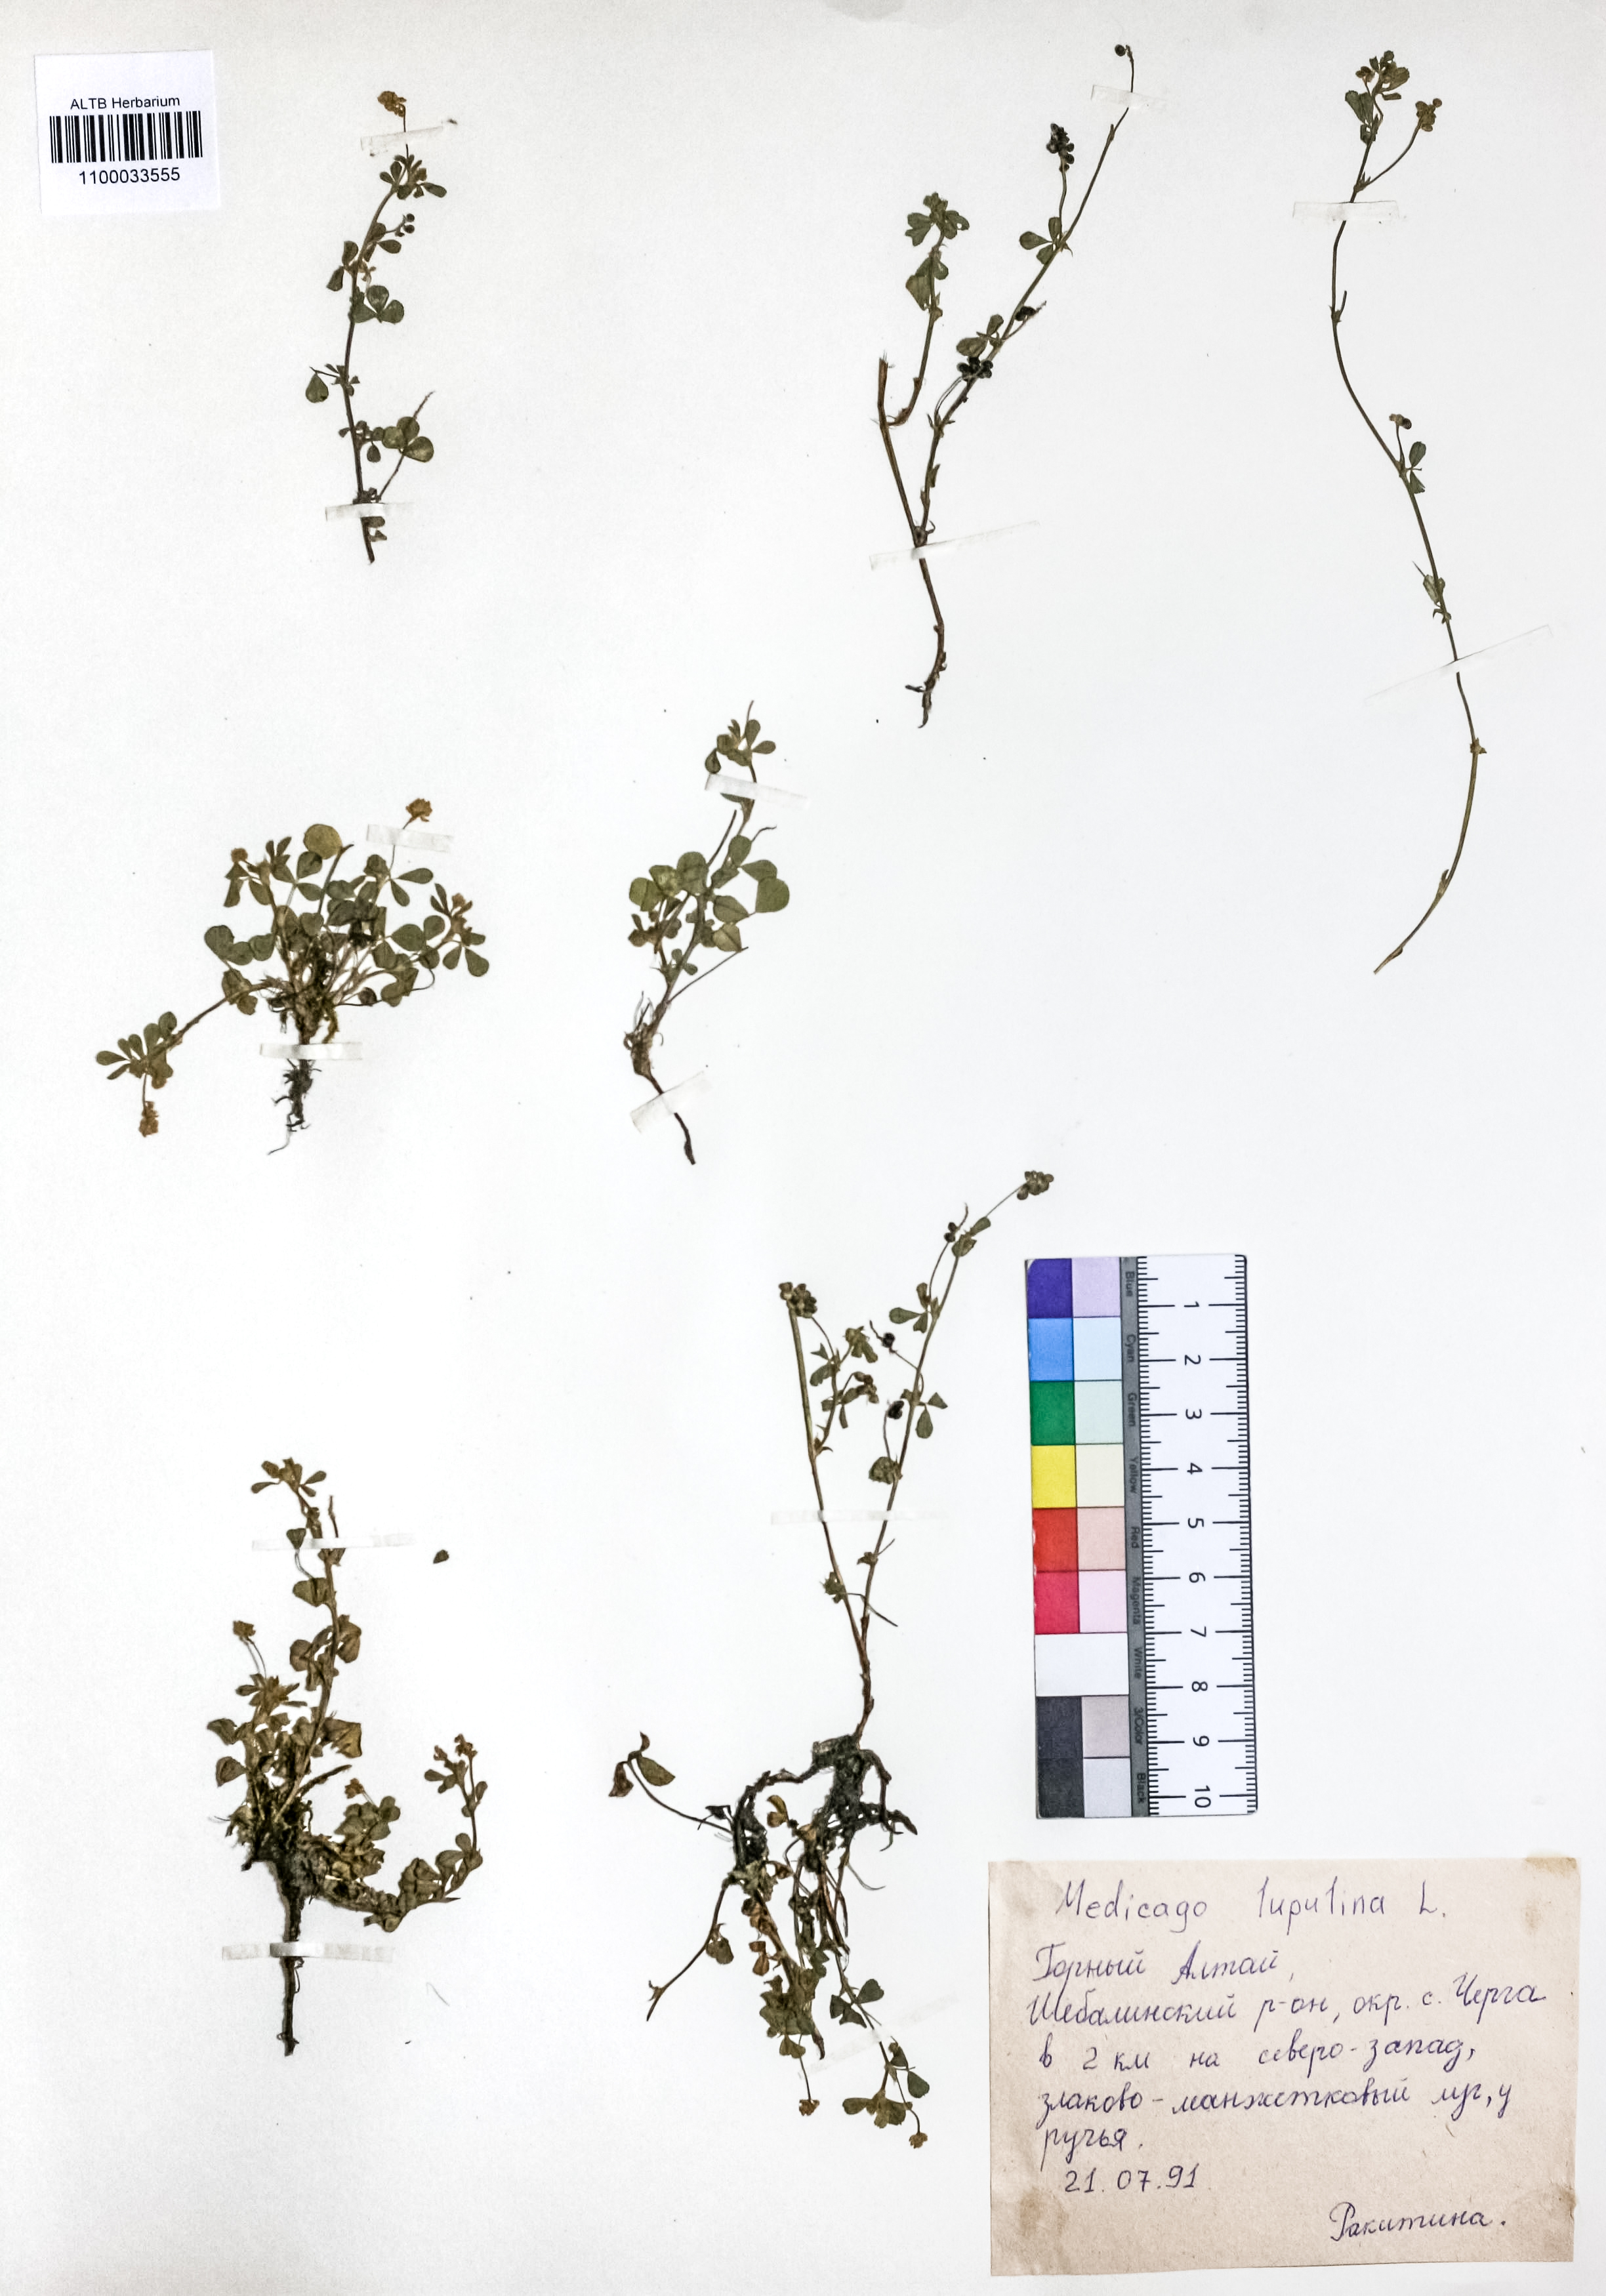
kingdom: Plantae
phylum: Tracheophyta
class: Magnoliopsida
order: Fabales
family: Fabaceae
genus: Medicago
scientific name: Medicago lupulina
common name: Black medick
